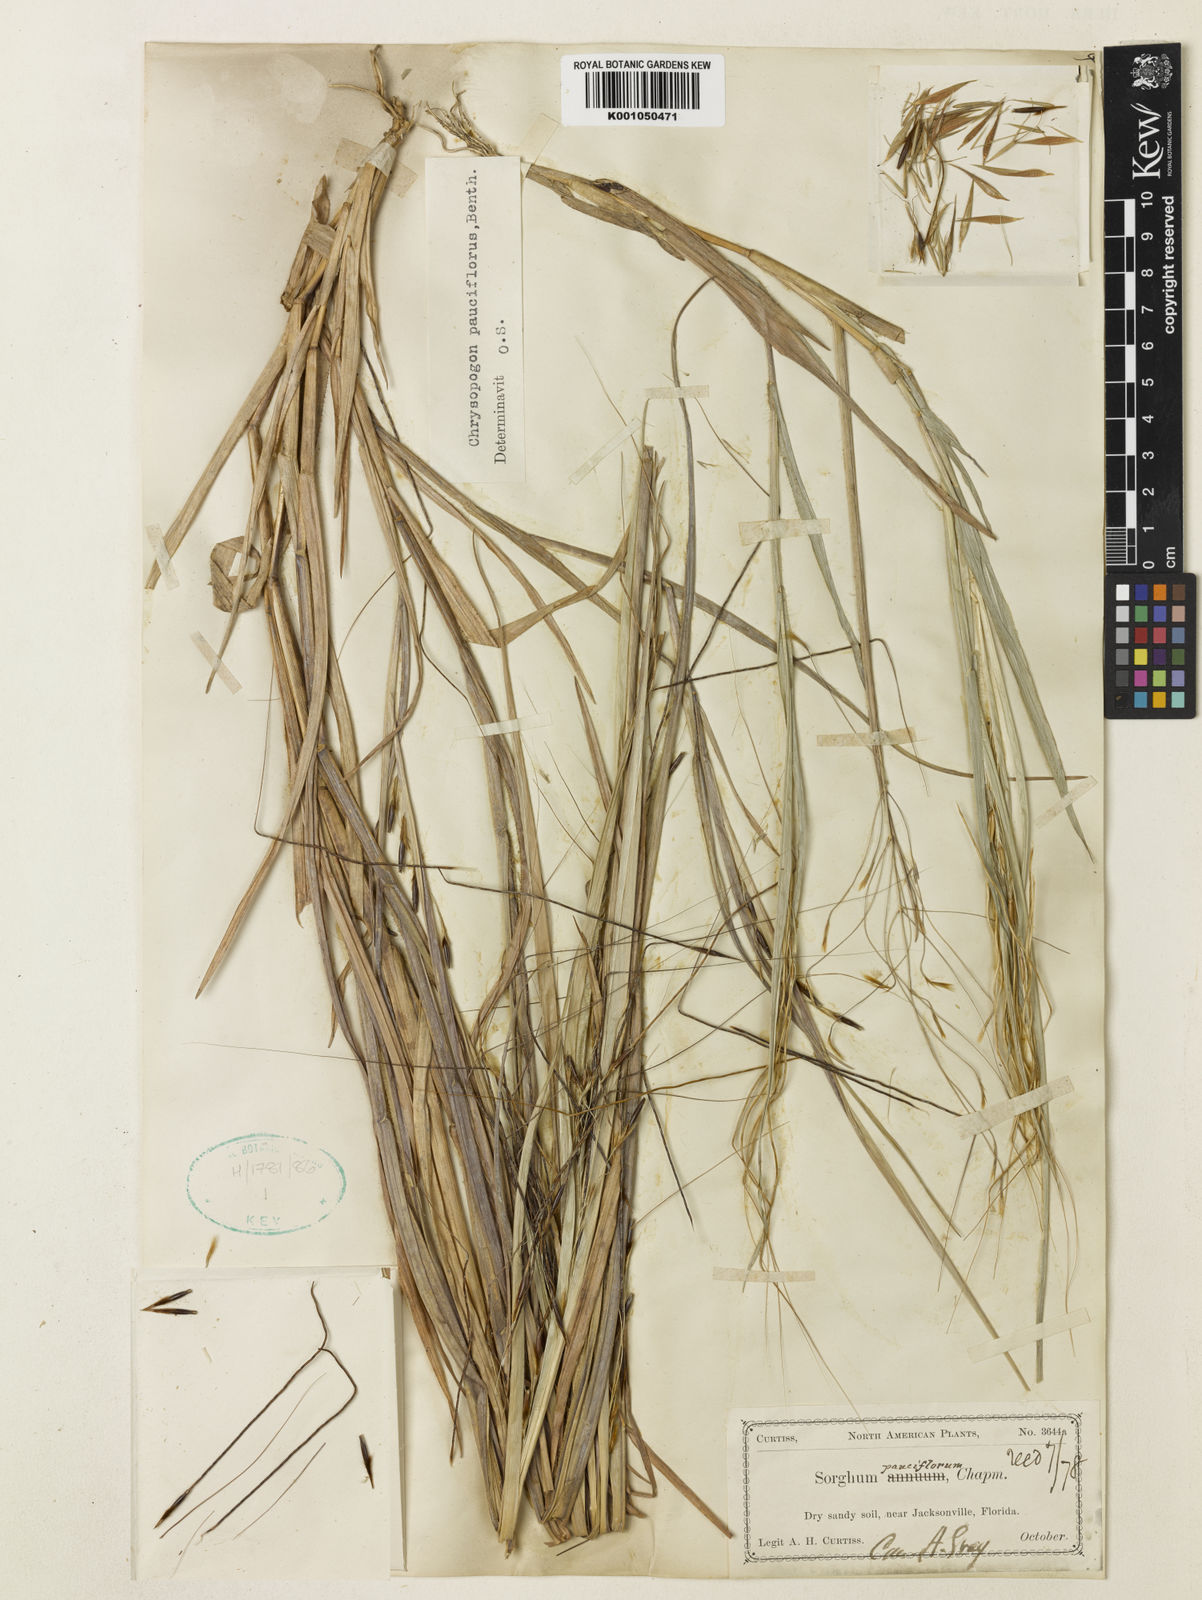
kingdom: Plantae
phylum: Tracheophyta
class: Liliopsida
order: Poales
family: Poaceae
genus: Chrysopogon
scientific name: Chrysopogon pauciflorus
